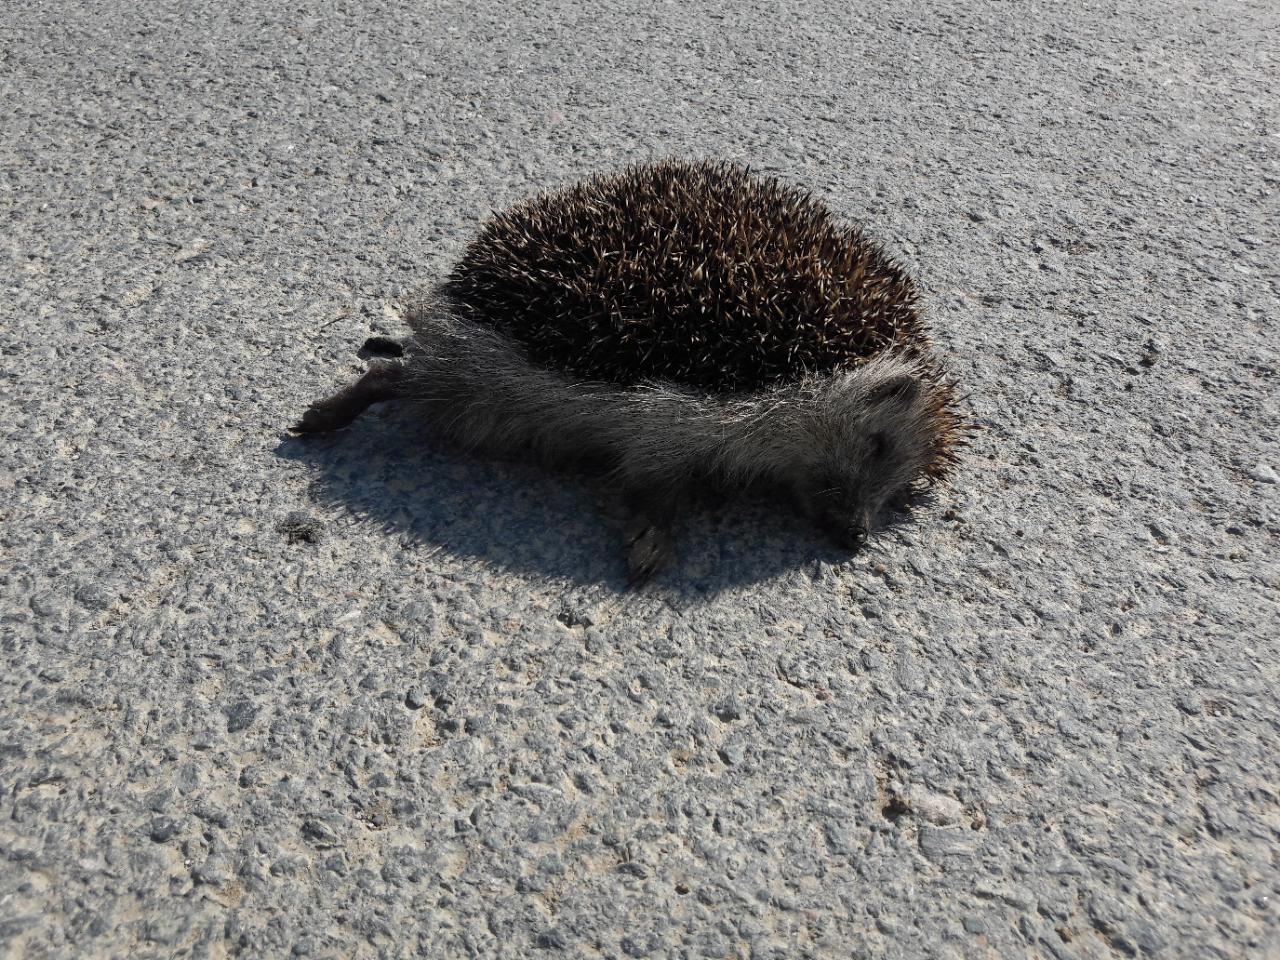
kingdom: Animalia
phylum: Chordata
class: Mammalia
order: Erinaceomorpha
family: Erinaceidae
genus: Erinaceus
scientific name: Erinaceus
